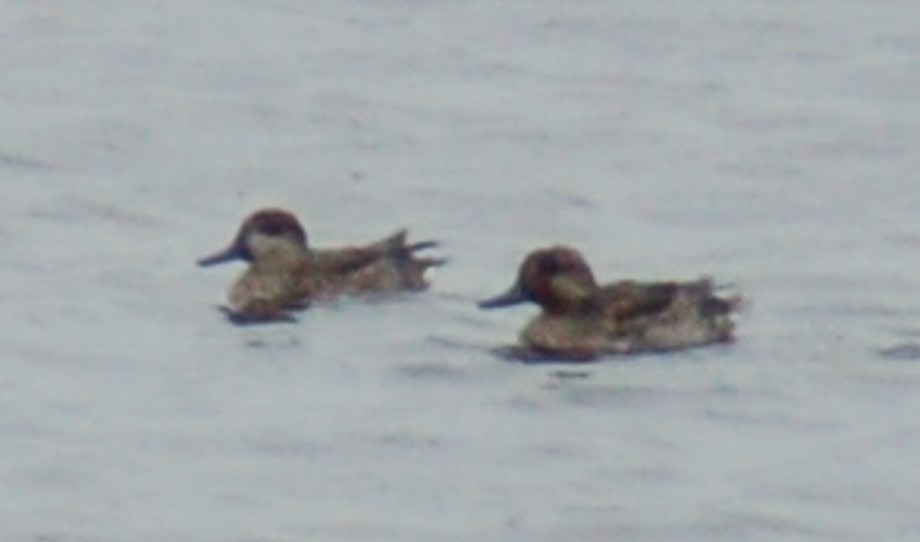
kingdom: Animalia
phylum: Chordata
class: Aves
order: Anseriformes
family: Anatidae
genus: Anas
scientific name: Anas crecca
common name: Krikand
